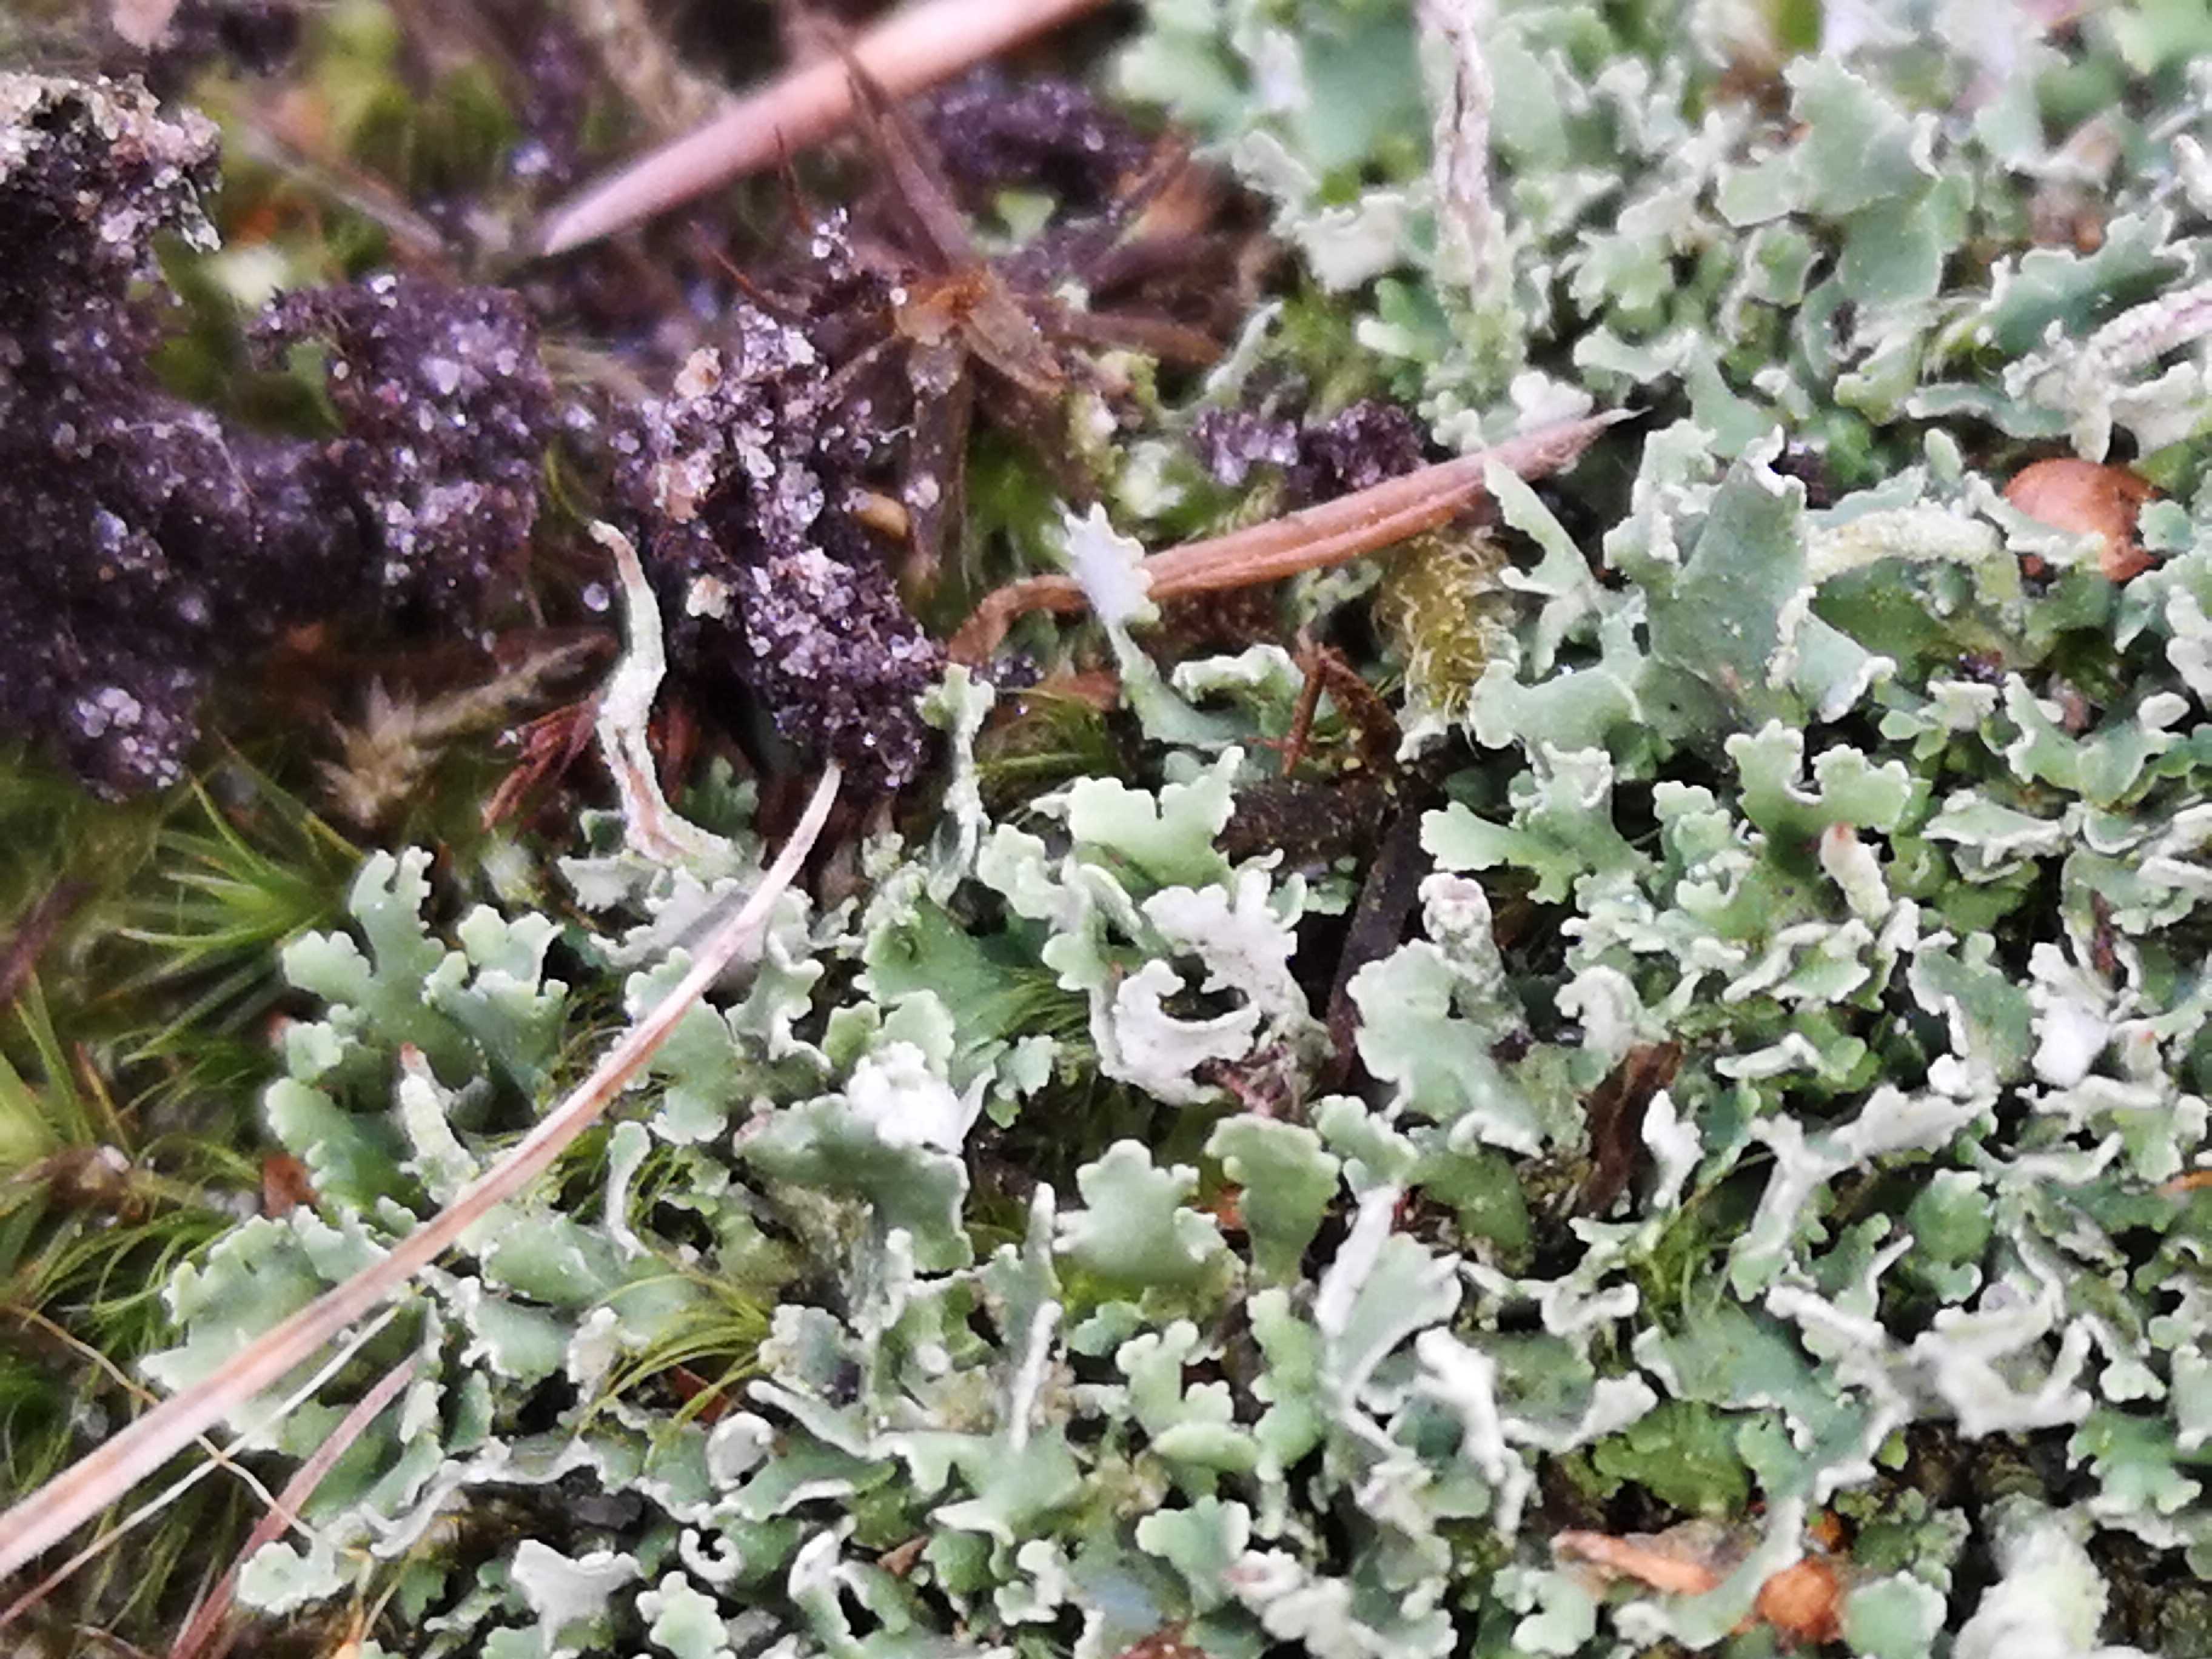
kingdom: Fungi
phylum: Ascomycota
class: Lecanoromycetes
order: Lecanorales
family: Cladoniaceae
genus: Cladonia
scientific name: Cladonia coniocraea
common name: træfods-bægerlav
